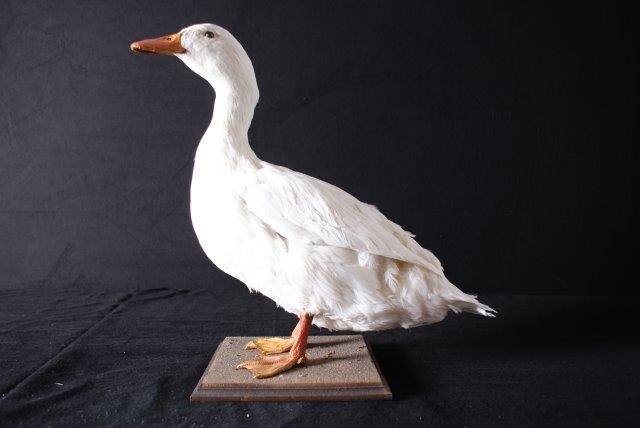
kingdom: Animalia
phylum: Chordata
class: Aves
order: Anseriformes
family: Anatidae
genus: Anas
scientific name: Anas platyrhynchos
